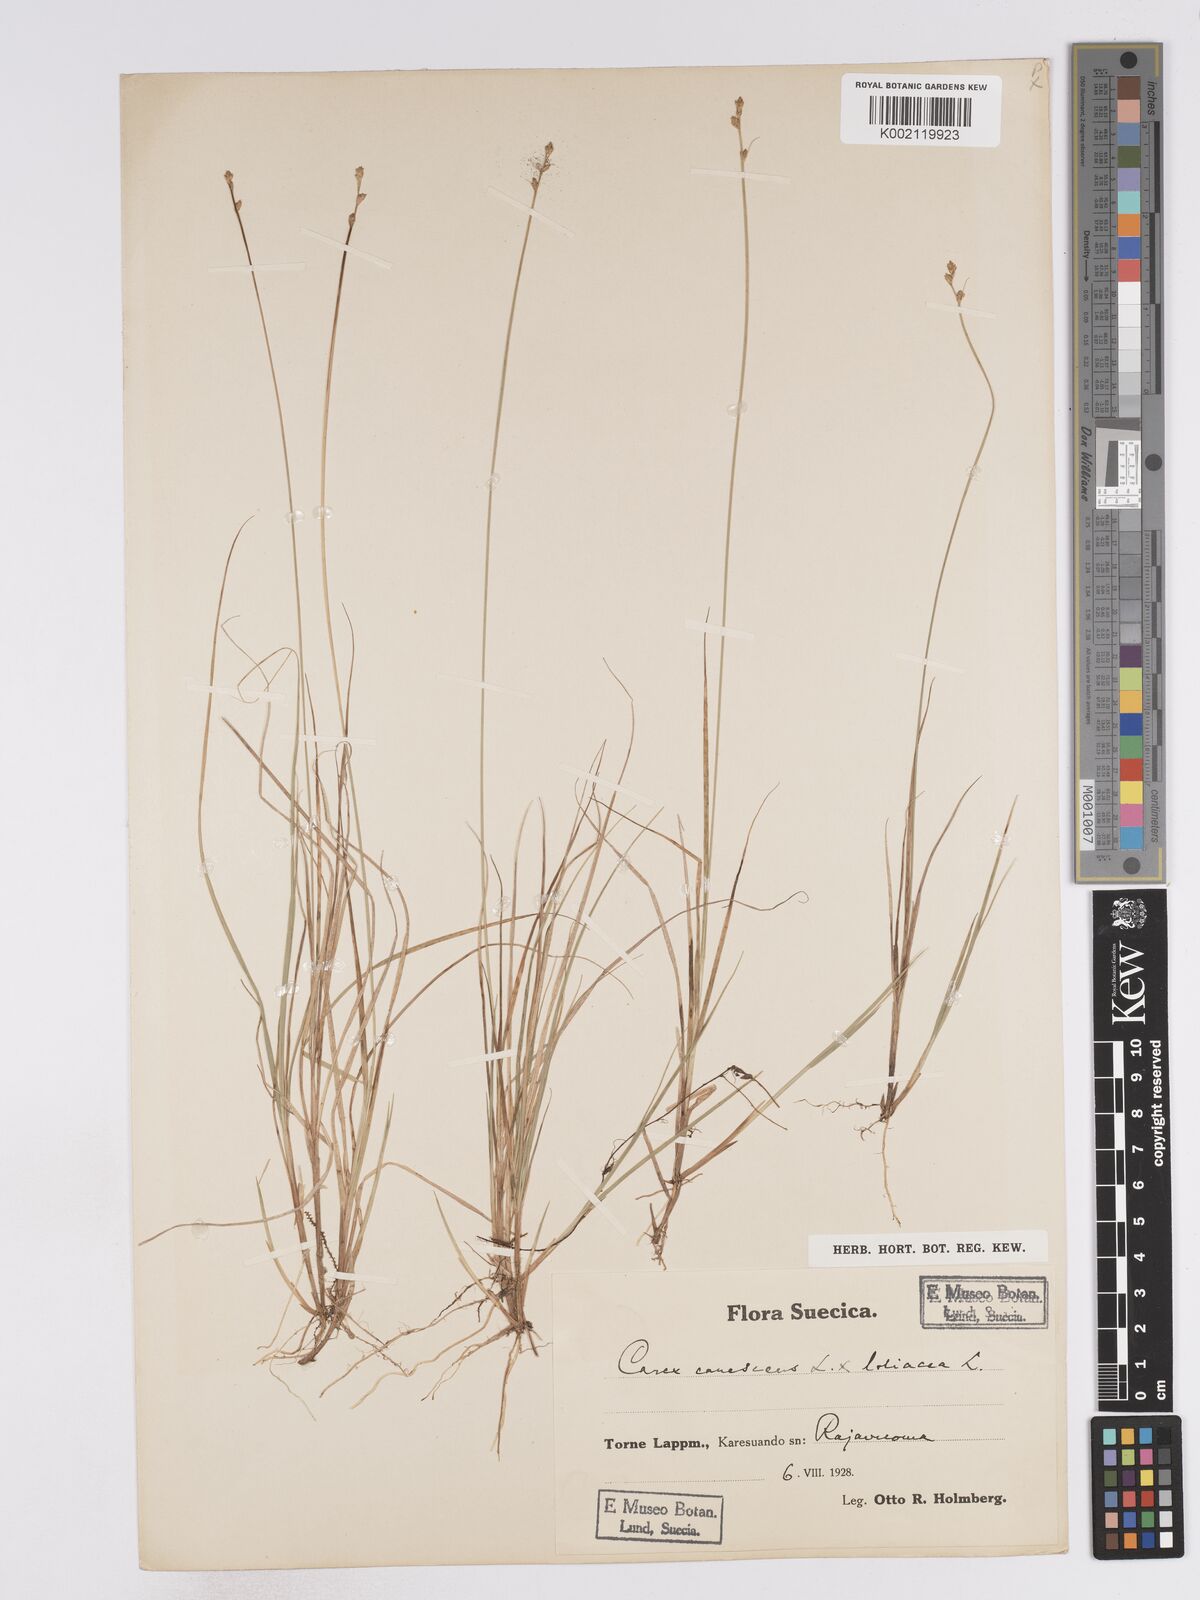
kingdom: Plantae
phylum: Tracheophyta
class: Liliopsida
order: Poales
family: Cyperaceae
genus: Carex
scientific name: Carex curta
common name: White sedge
